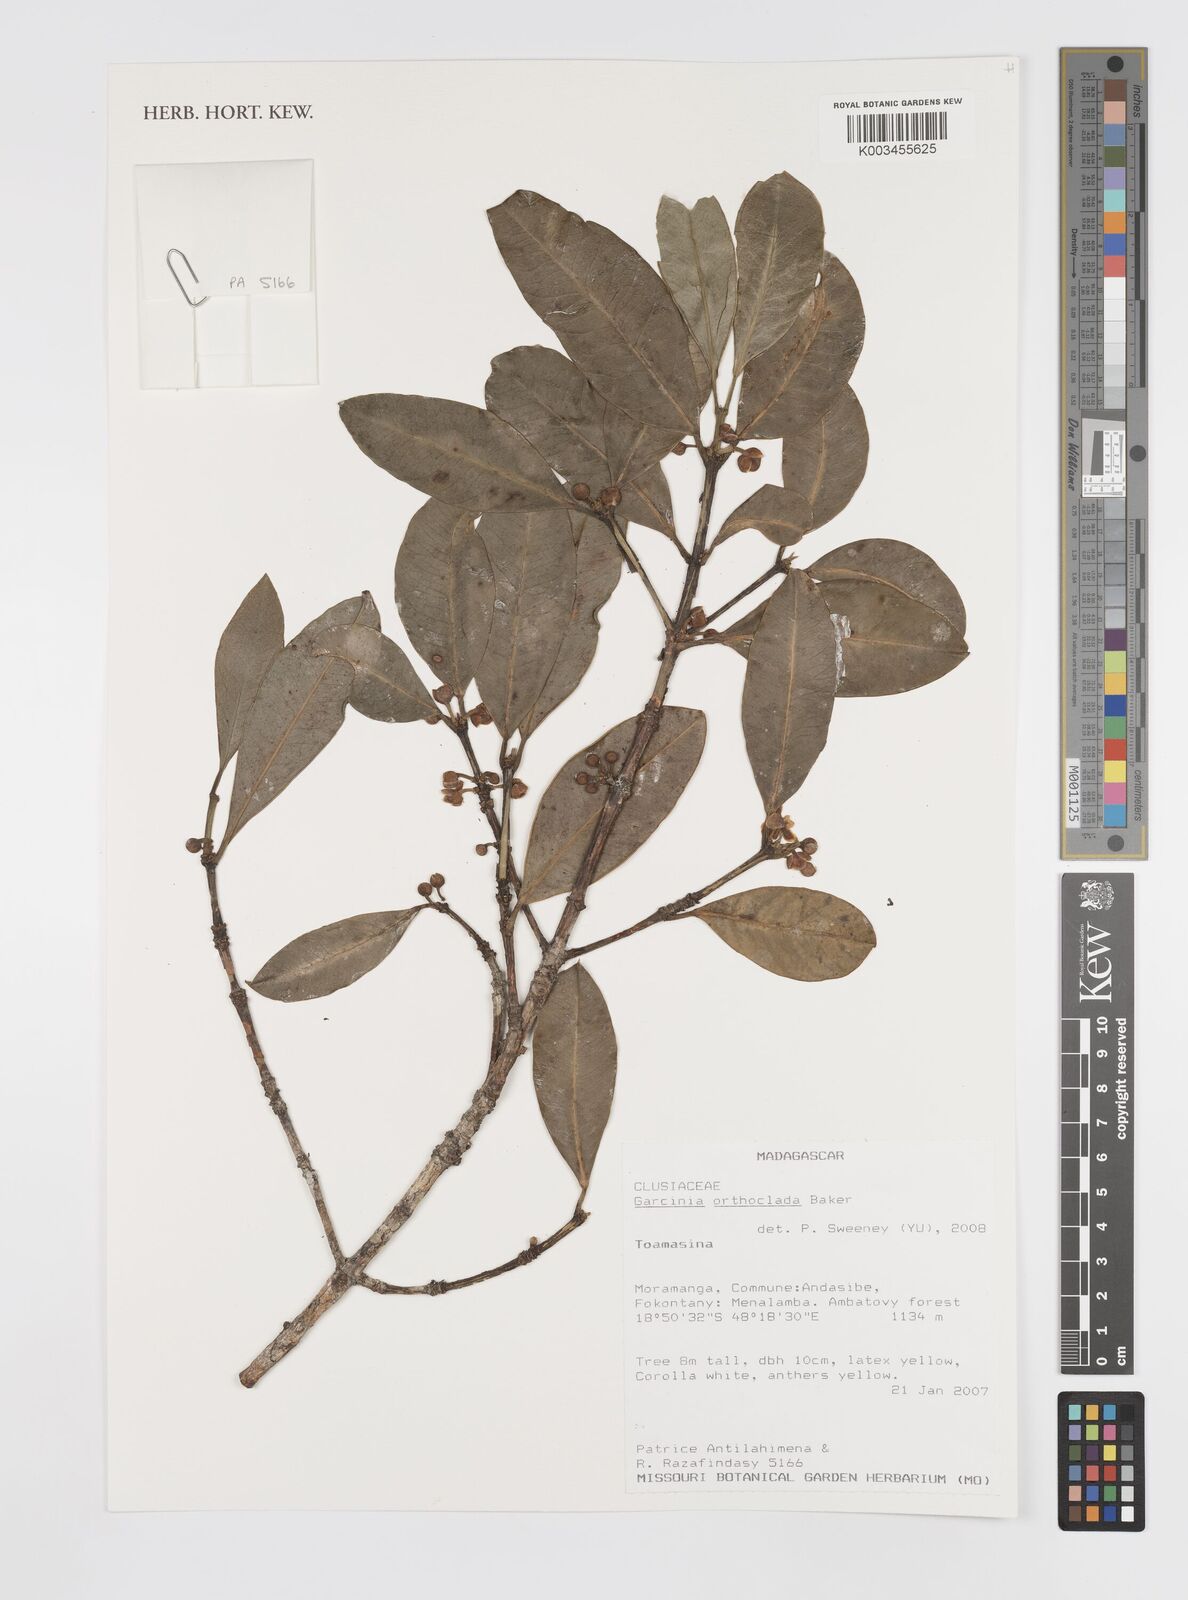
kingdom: Plantae
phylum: Tracheophyta
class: Magnoliopsida
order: Malpighiales
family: Clusiaceae
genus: Garcinia
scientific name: Garcinia orthoclada
